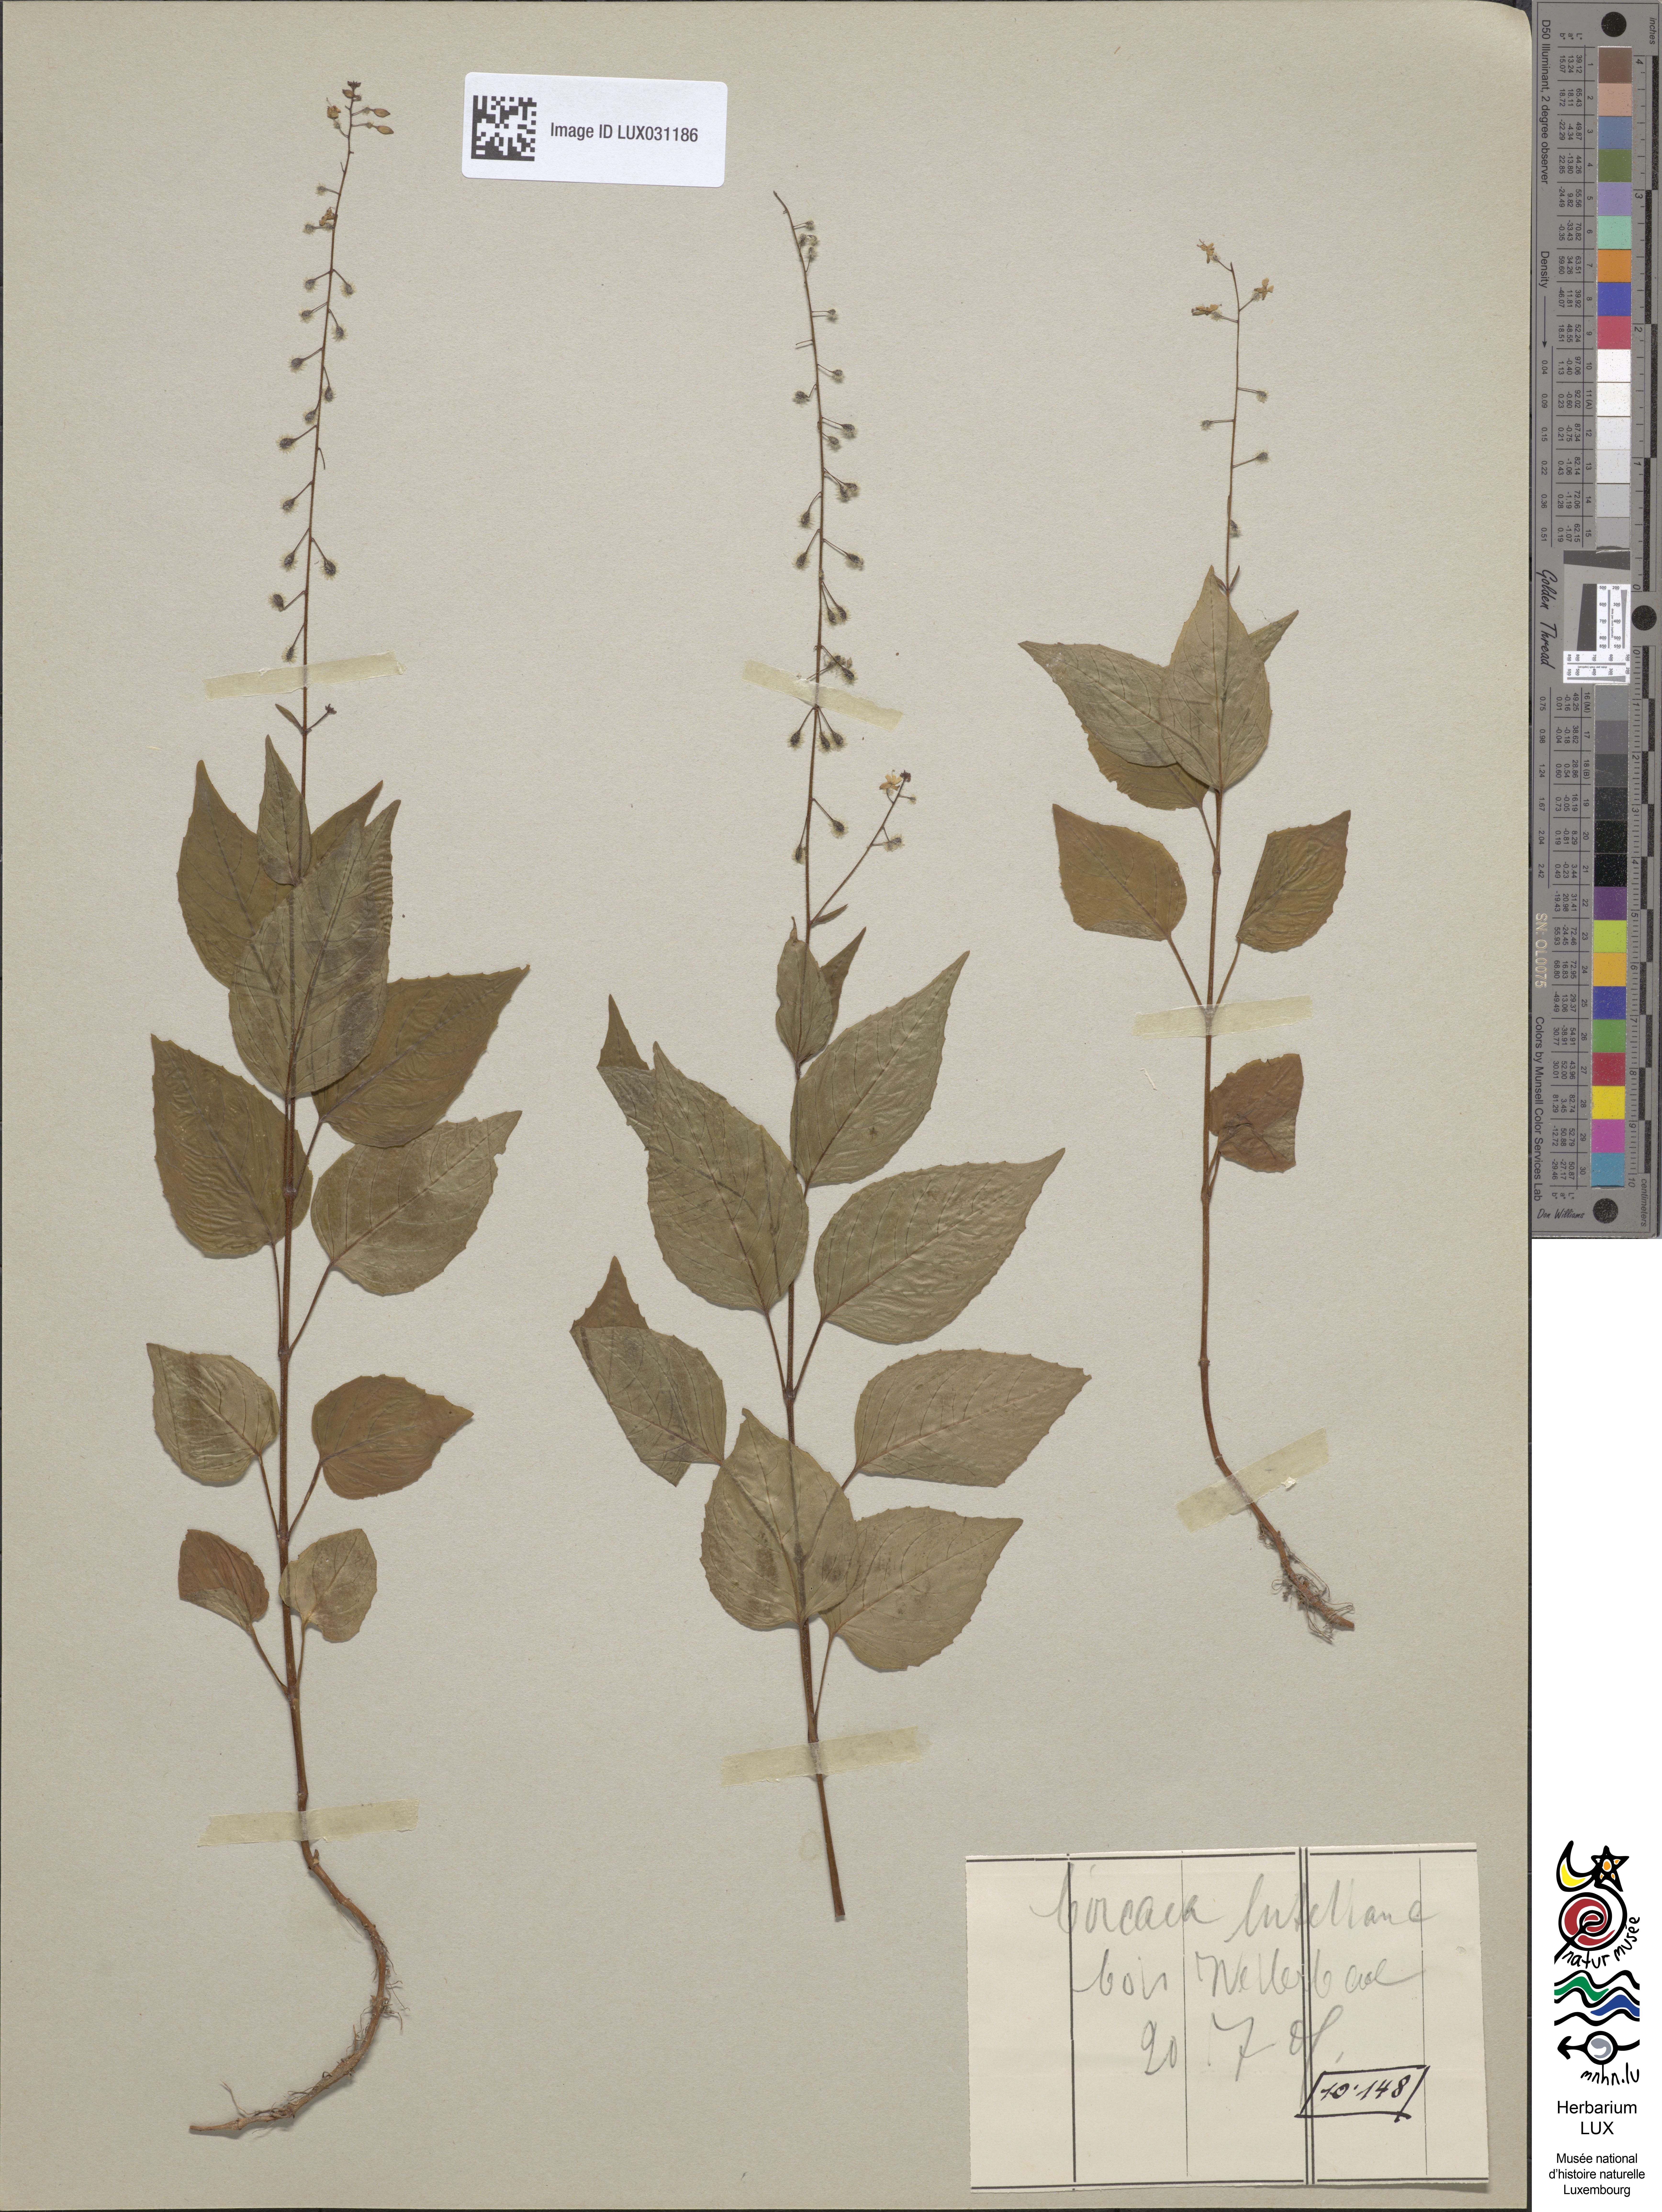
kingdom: Plantae
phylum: Tracheophyta
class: Magnoliopsida
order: Myrtales
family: Onagraceae
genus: Circaea
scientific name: Circaea lutetiana
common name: Enchanter's-nightshade
